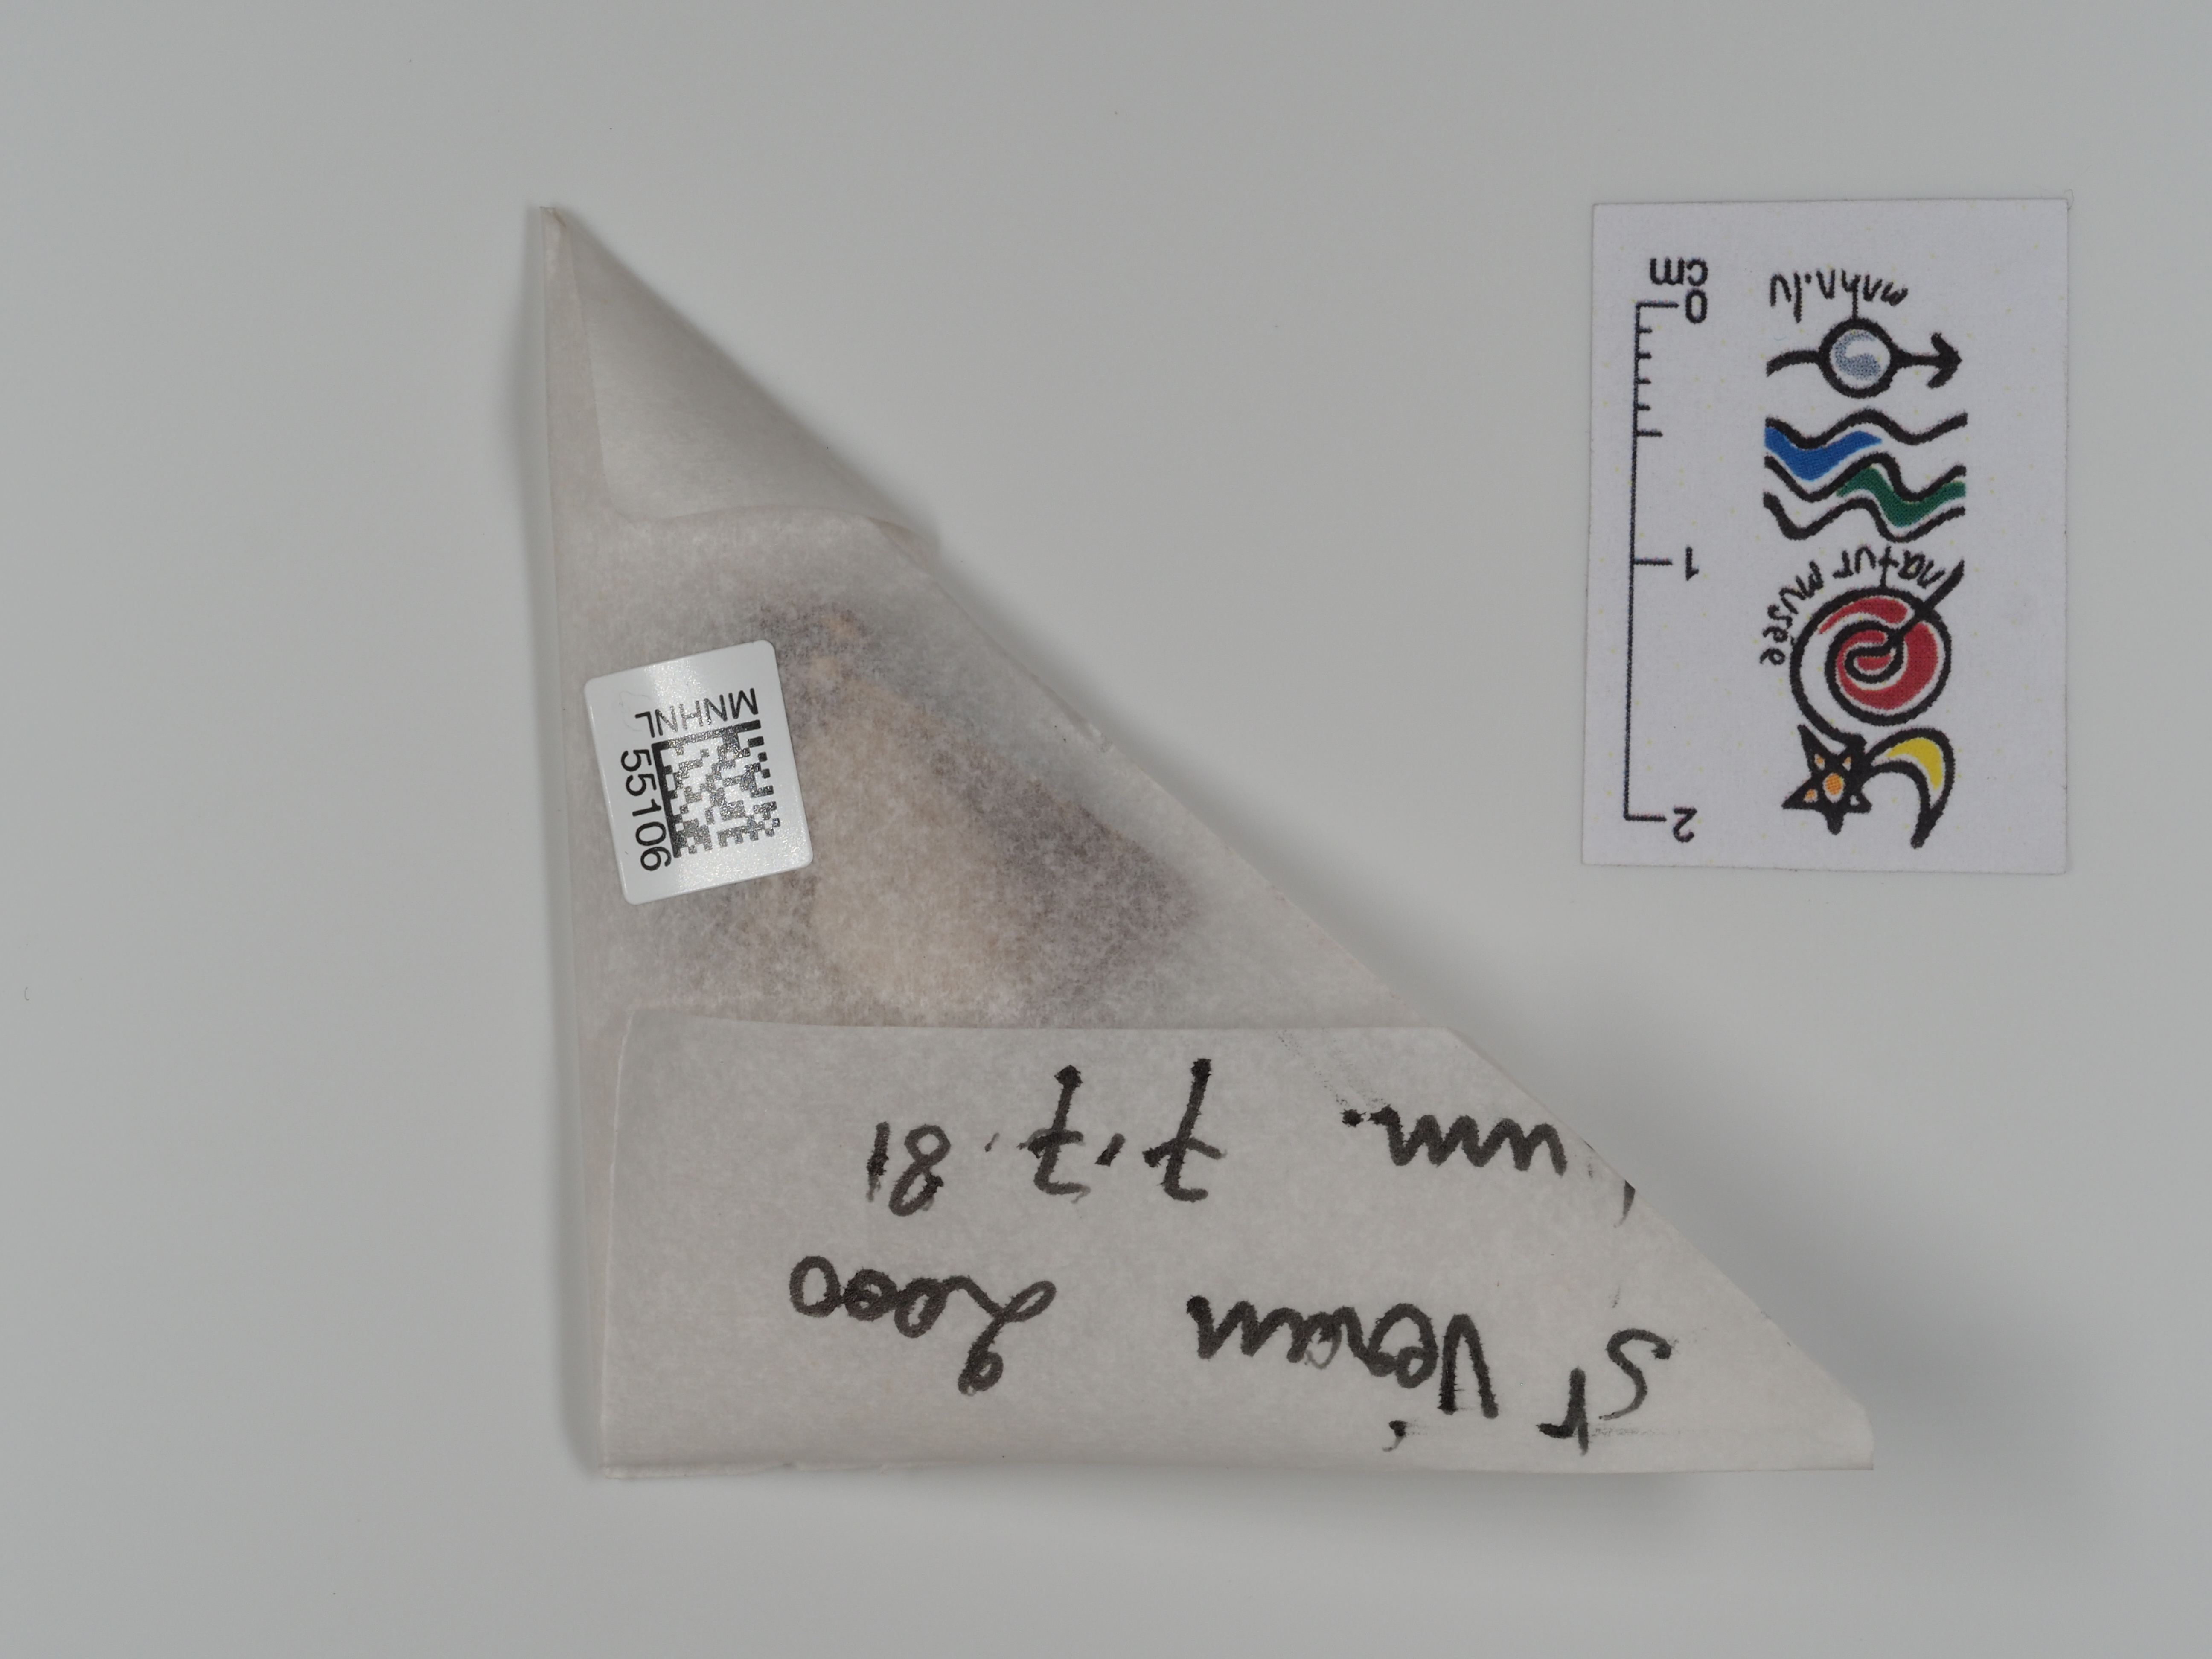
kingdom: Animalia
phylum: Arthropoda
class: Insecta
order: Lepidoptera
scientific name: Lepidoptera
